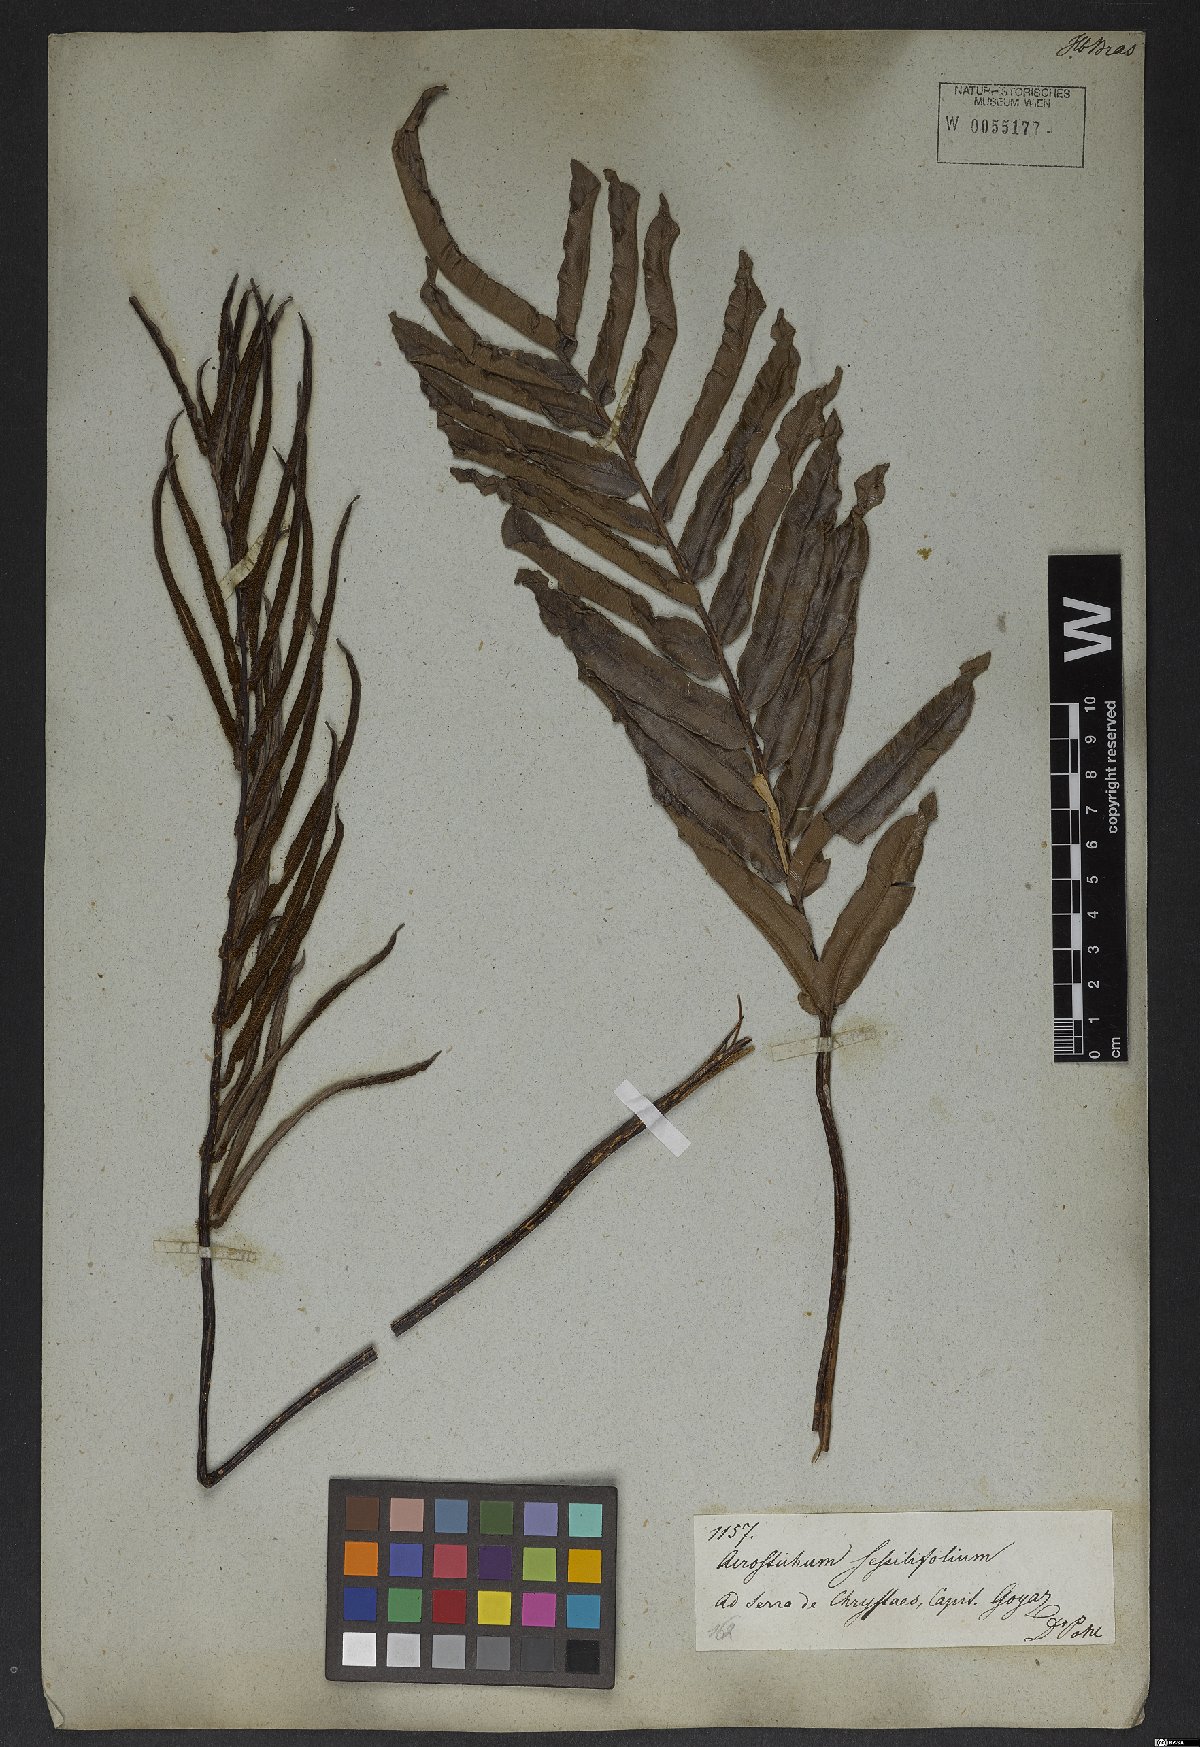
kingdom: Plantae
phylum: Tracheophyta
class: Polypodiopsida
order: Polypodiales
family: Blechnaceae
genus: Blechnum
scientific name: Blechnum
